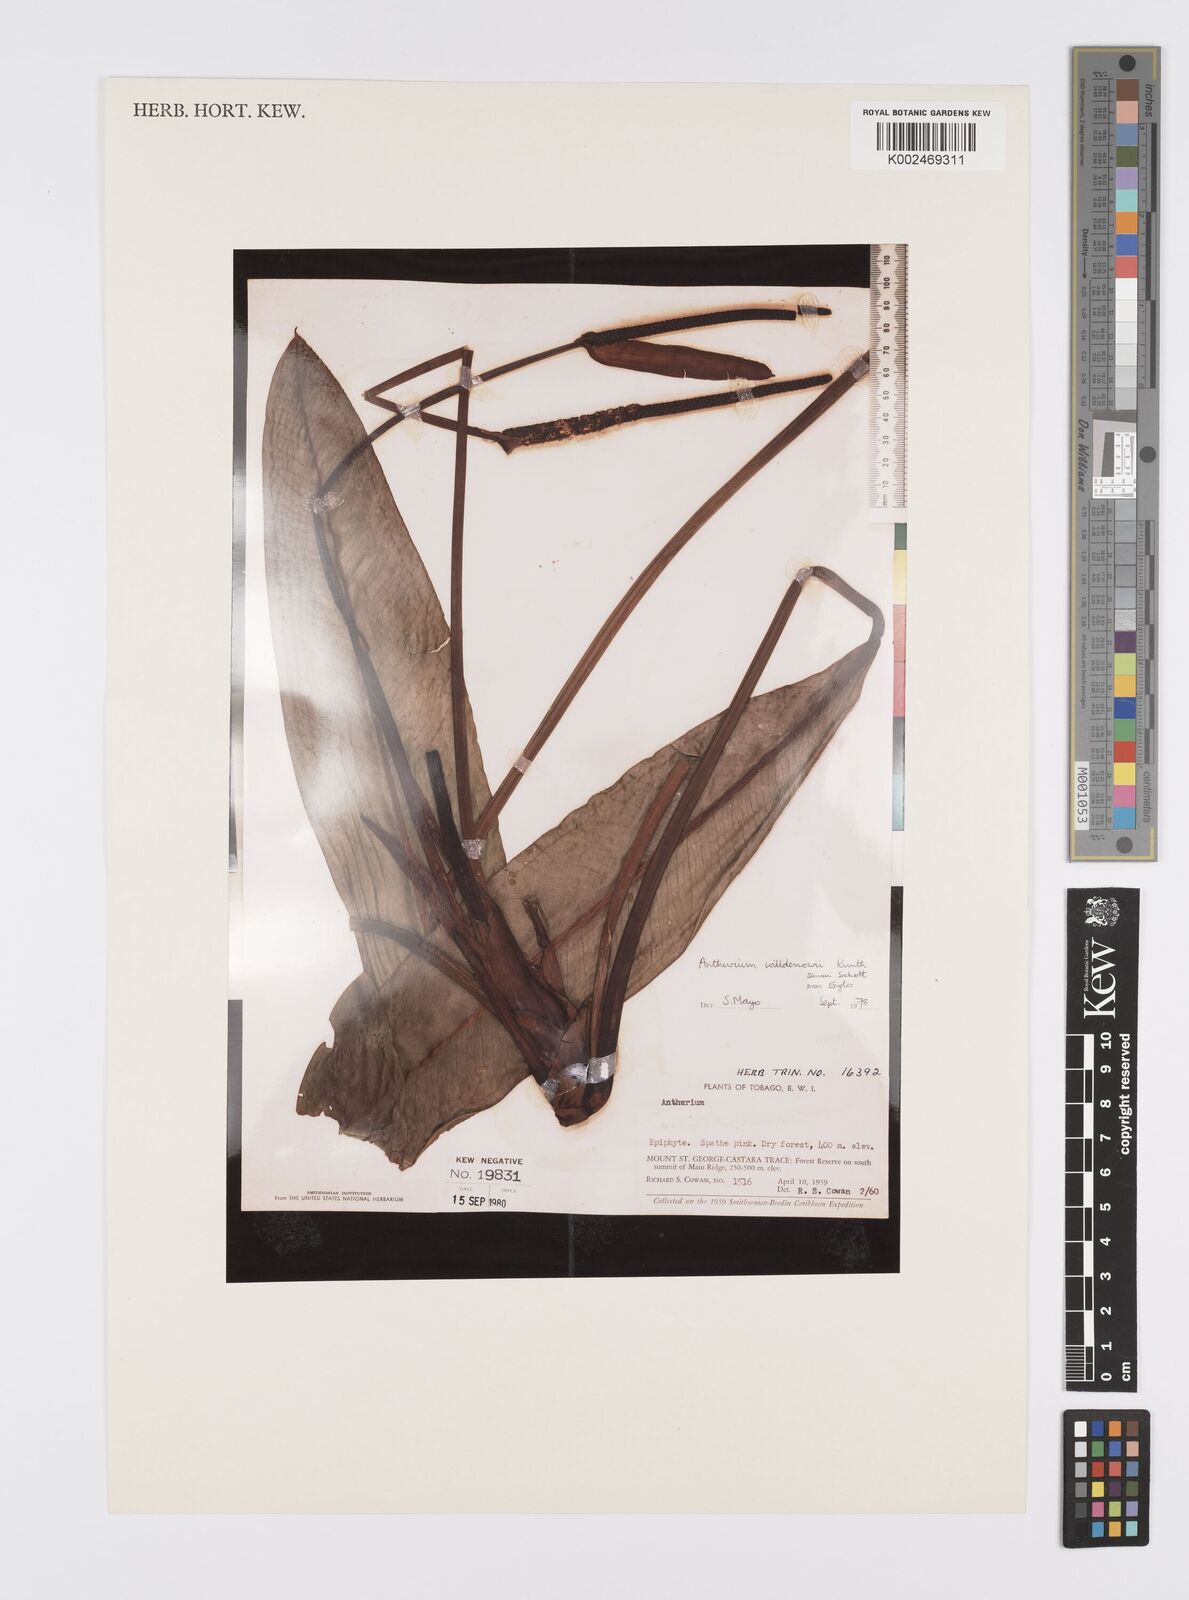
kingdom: Plantae
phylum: Tracheophyta
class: Liliopsida
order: Alismatales
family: Araceae
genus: Anthurium
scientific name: Anthurium willdenowii
